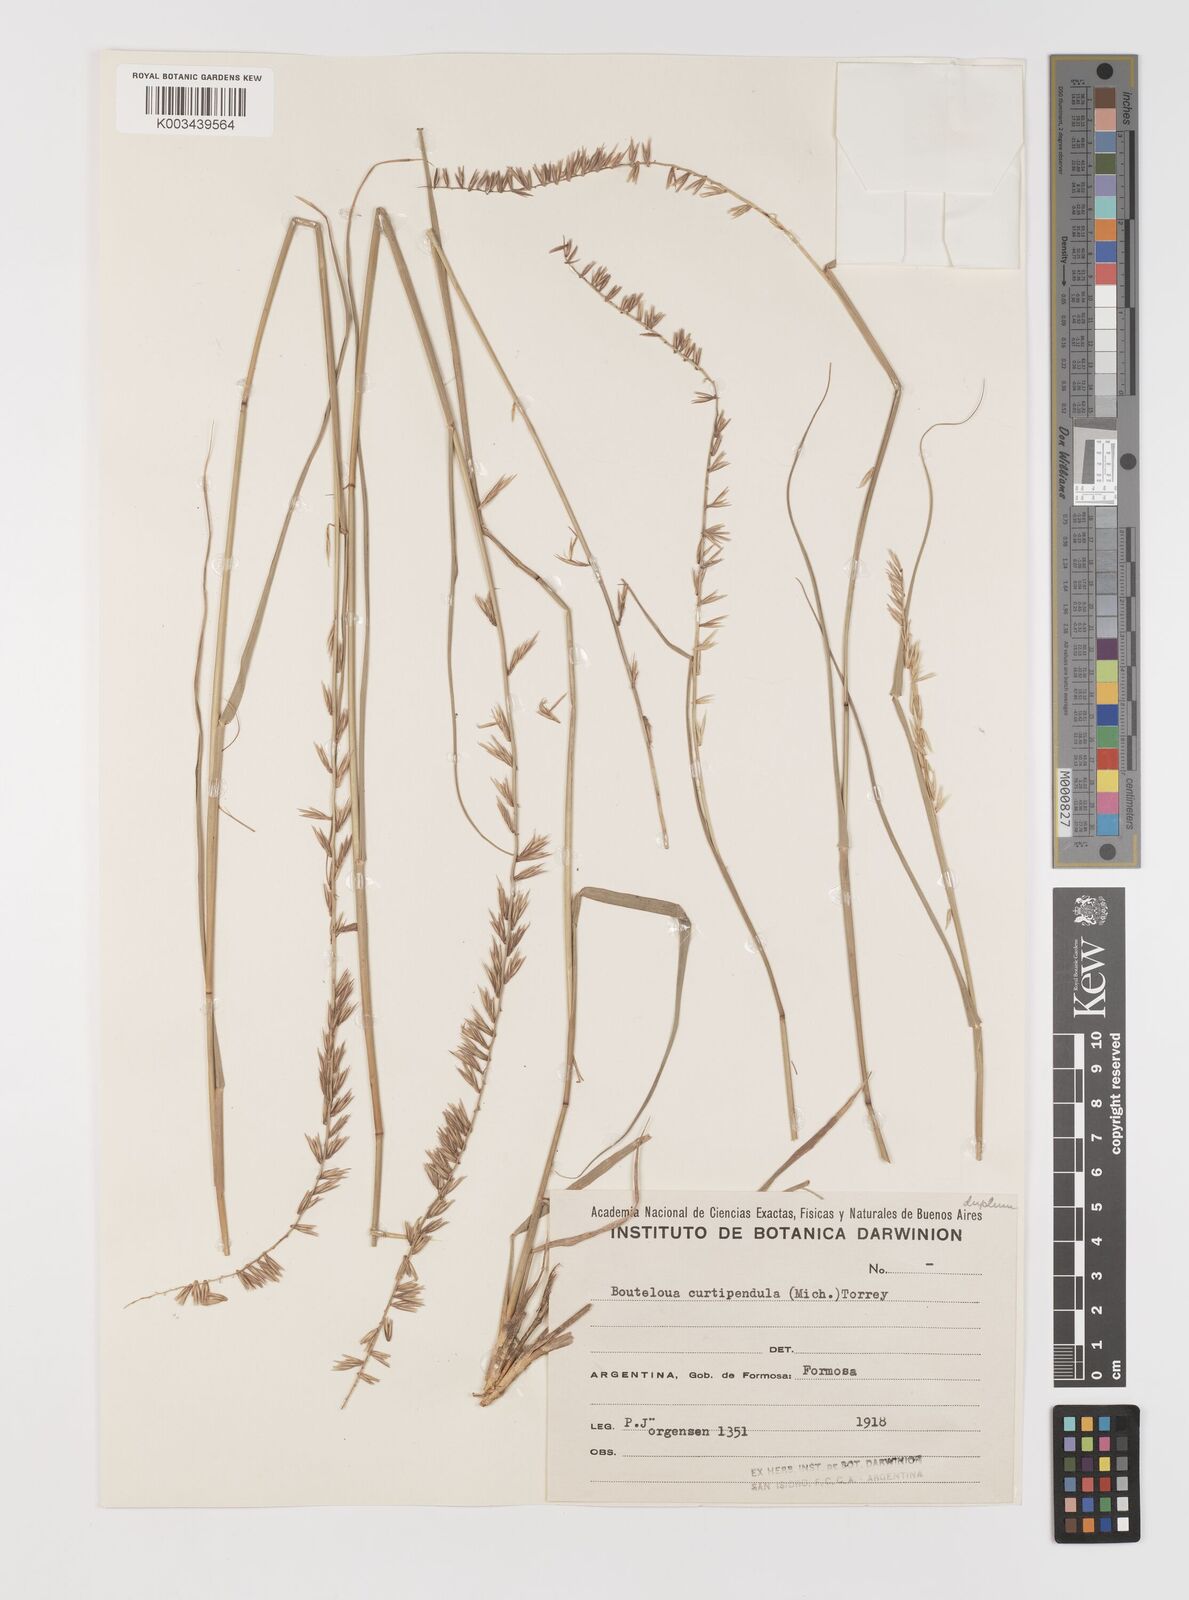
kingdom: Plantae
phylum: Tracheophyta
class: Liliopsida
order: Poales
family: Poaceae
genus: Bouteloua
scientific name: Bouteloua curtipendula
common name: Side-oats grama
